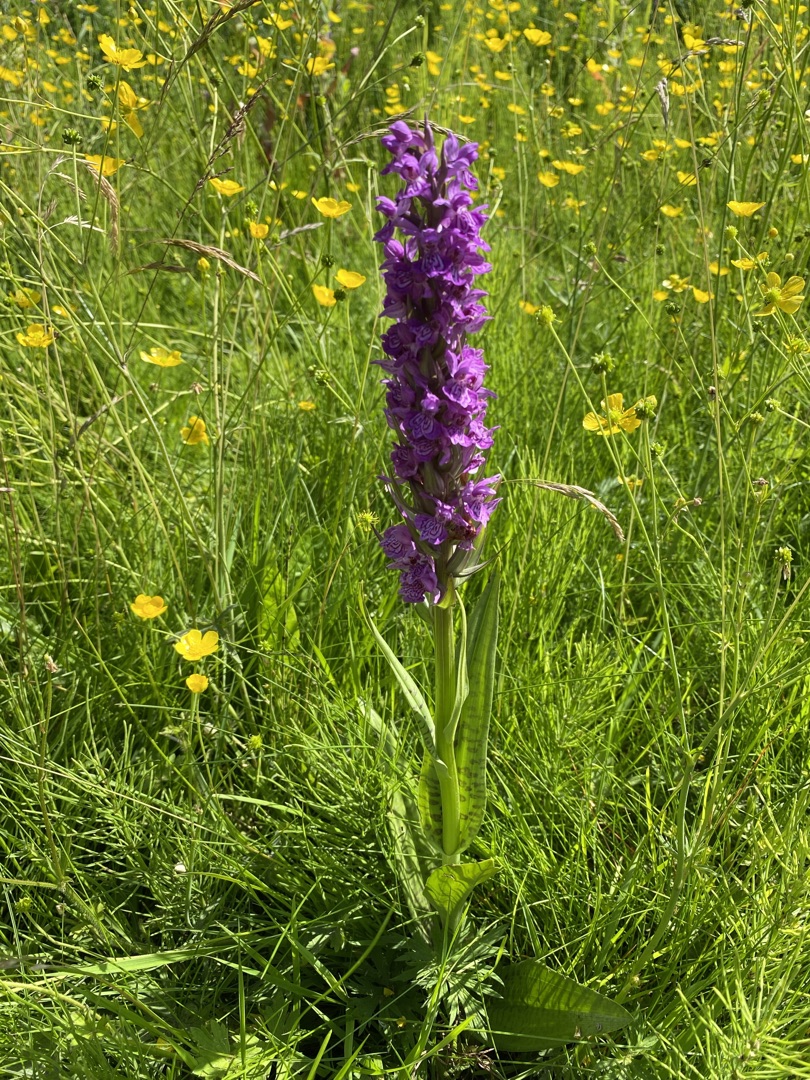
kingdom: Plantae
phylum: Tracheophyta
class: Liliopsida
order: Asparagales
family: Orchidaceae
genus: Dactylorhiza
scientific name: Dactylorhiza majalis
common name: Ringplettet gøgeurt
